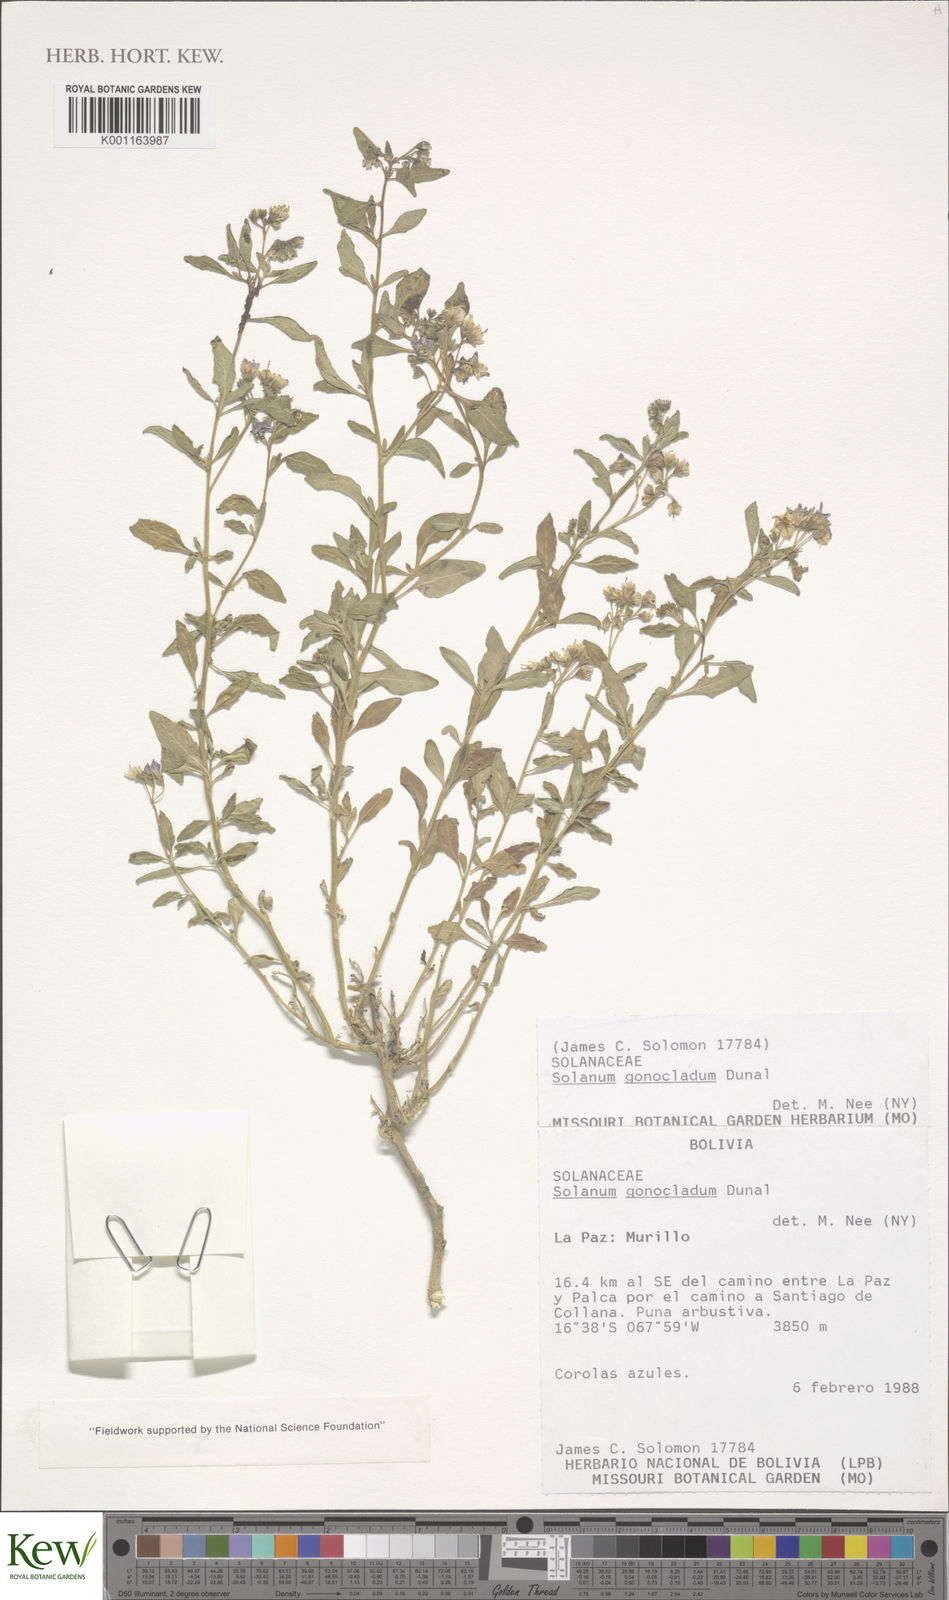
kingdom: Plantae
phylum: Tracheophyta
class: Magnoliopsida
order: Solanales
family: Solanaceae
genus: Solanum
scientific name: Solanum gonocladum
